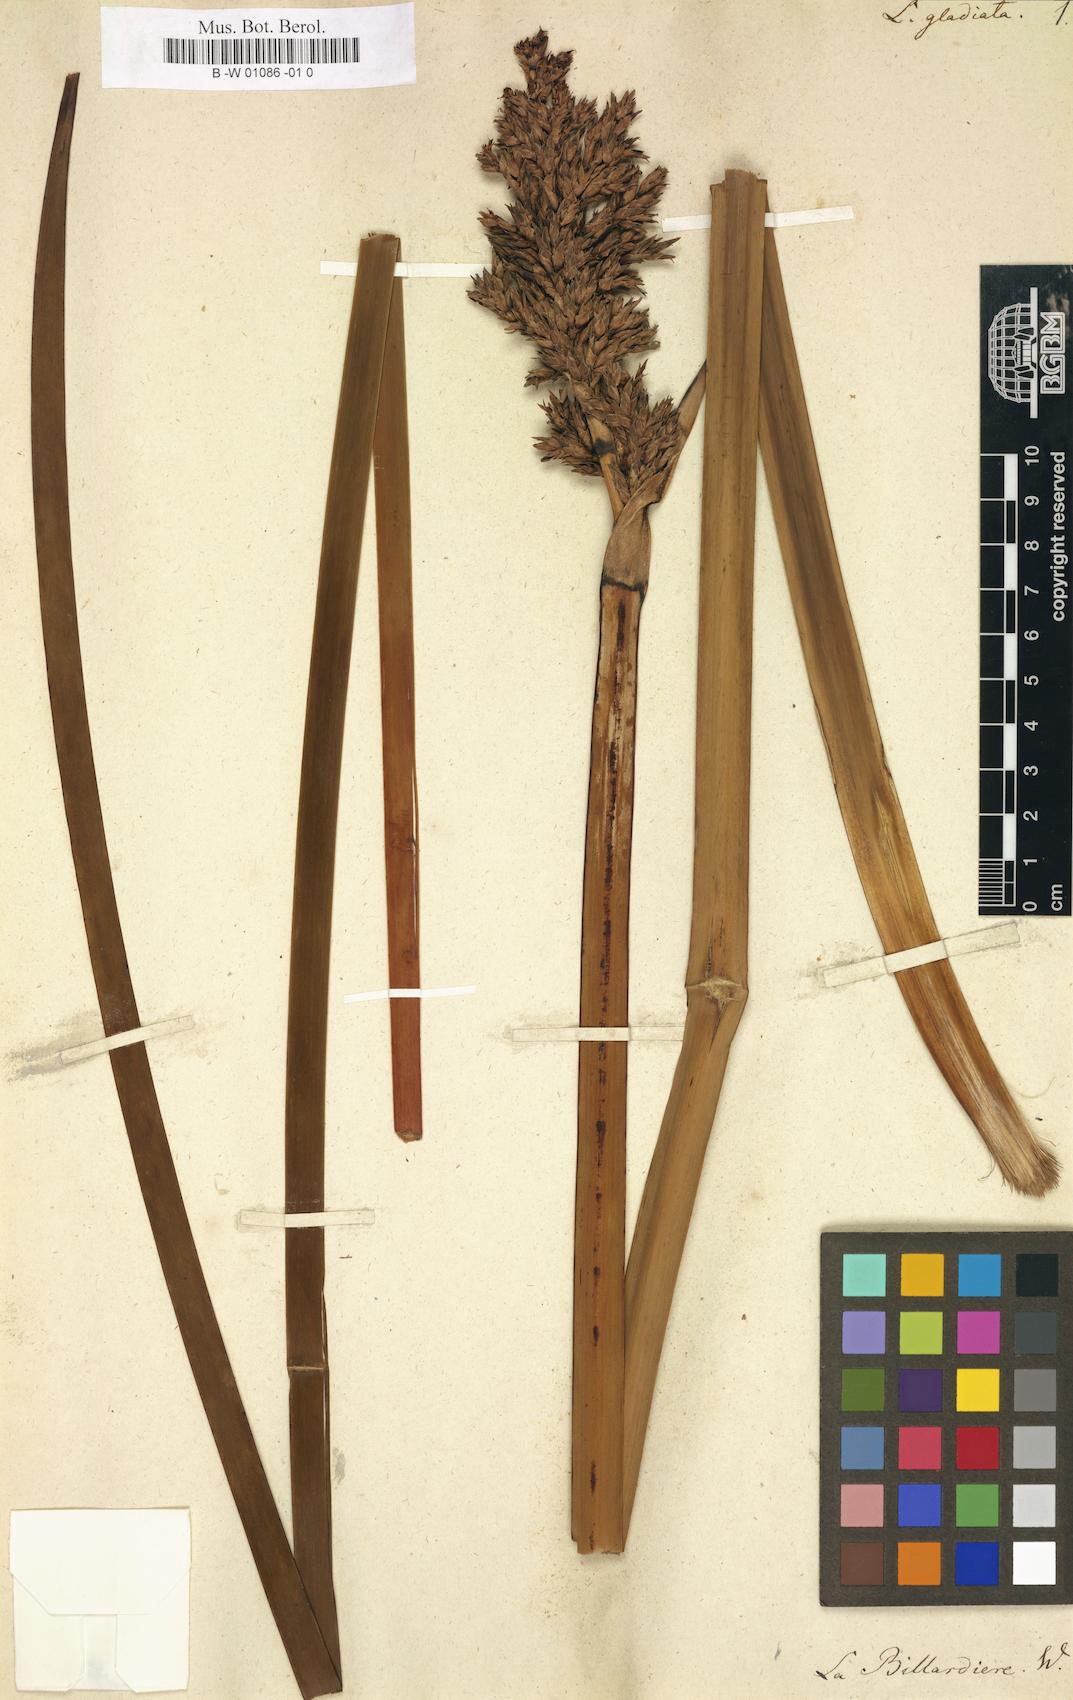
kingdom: Plantae
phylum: Tracheophyta
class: Liliopsida
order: Poales
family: Cyperaceae
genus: Lepidosperma
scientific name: Lepidosperma gladiatum
